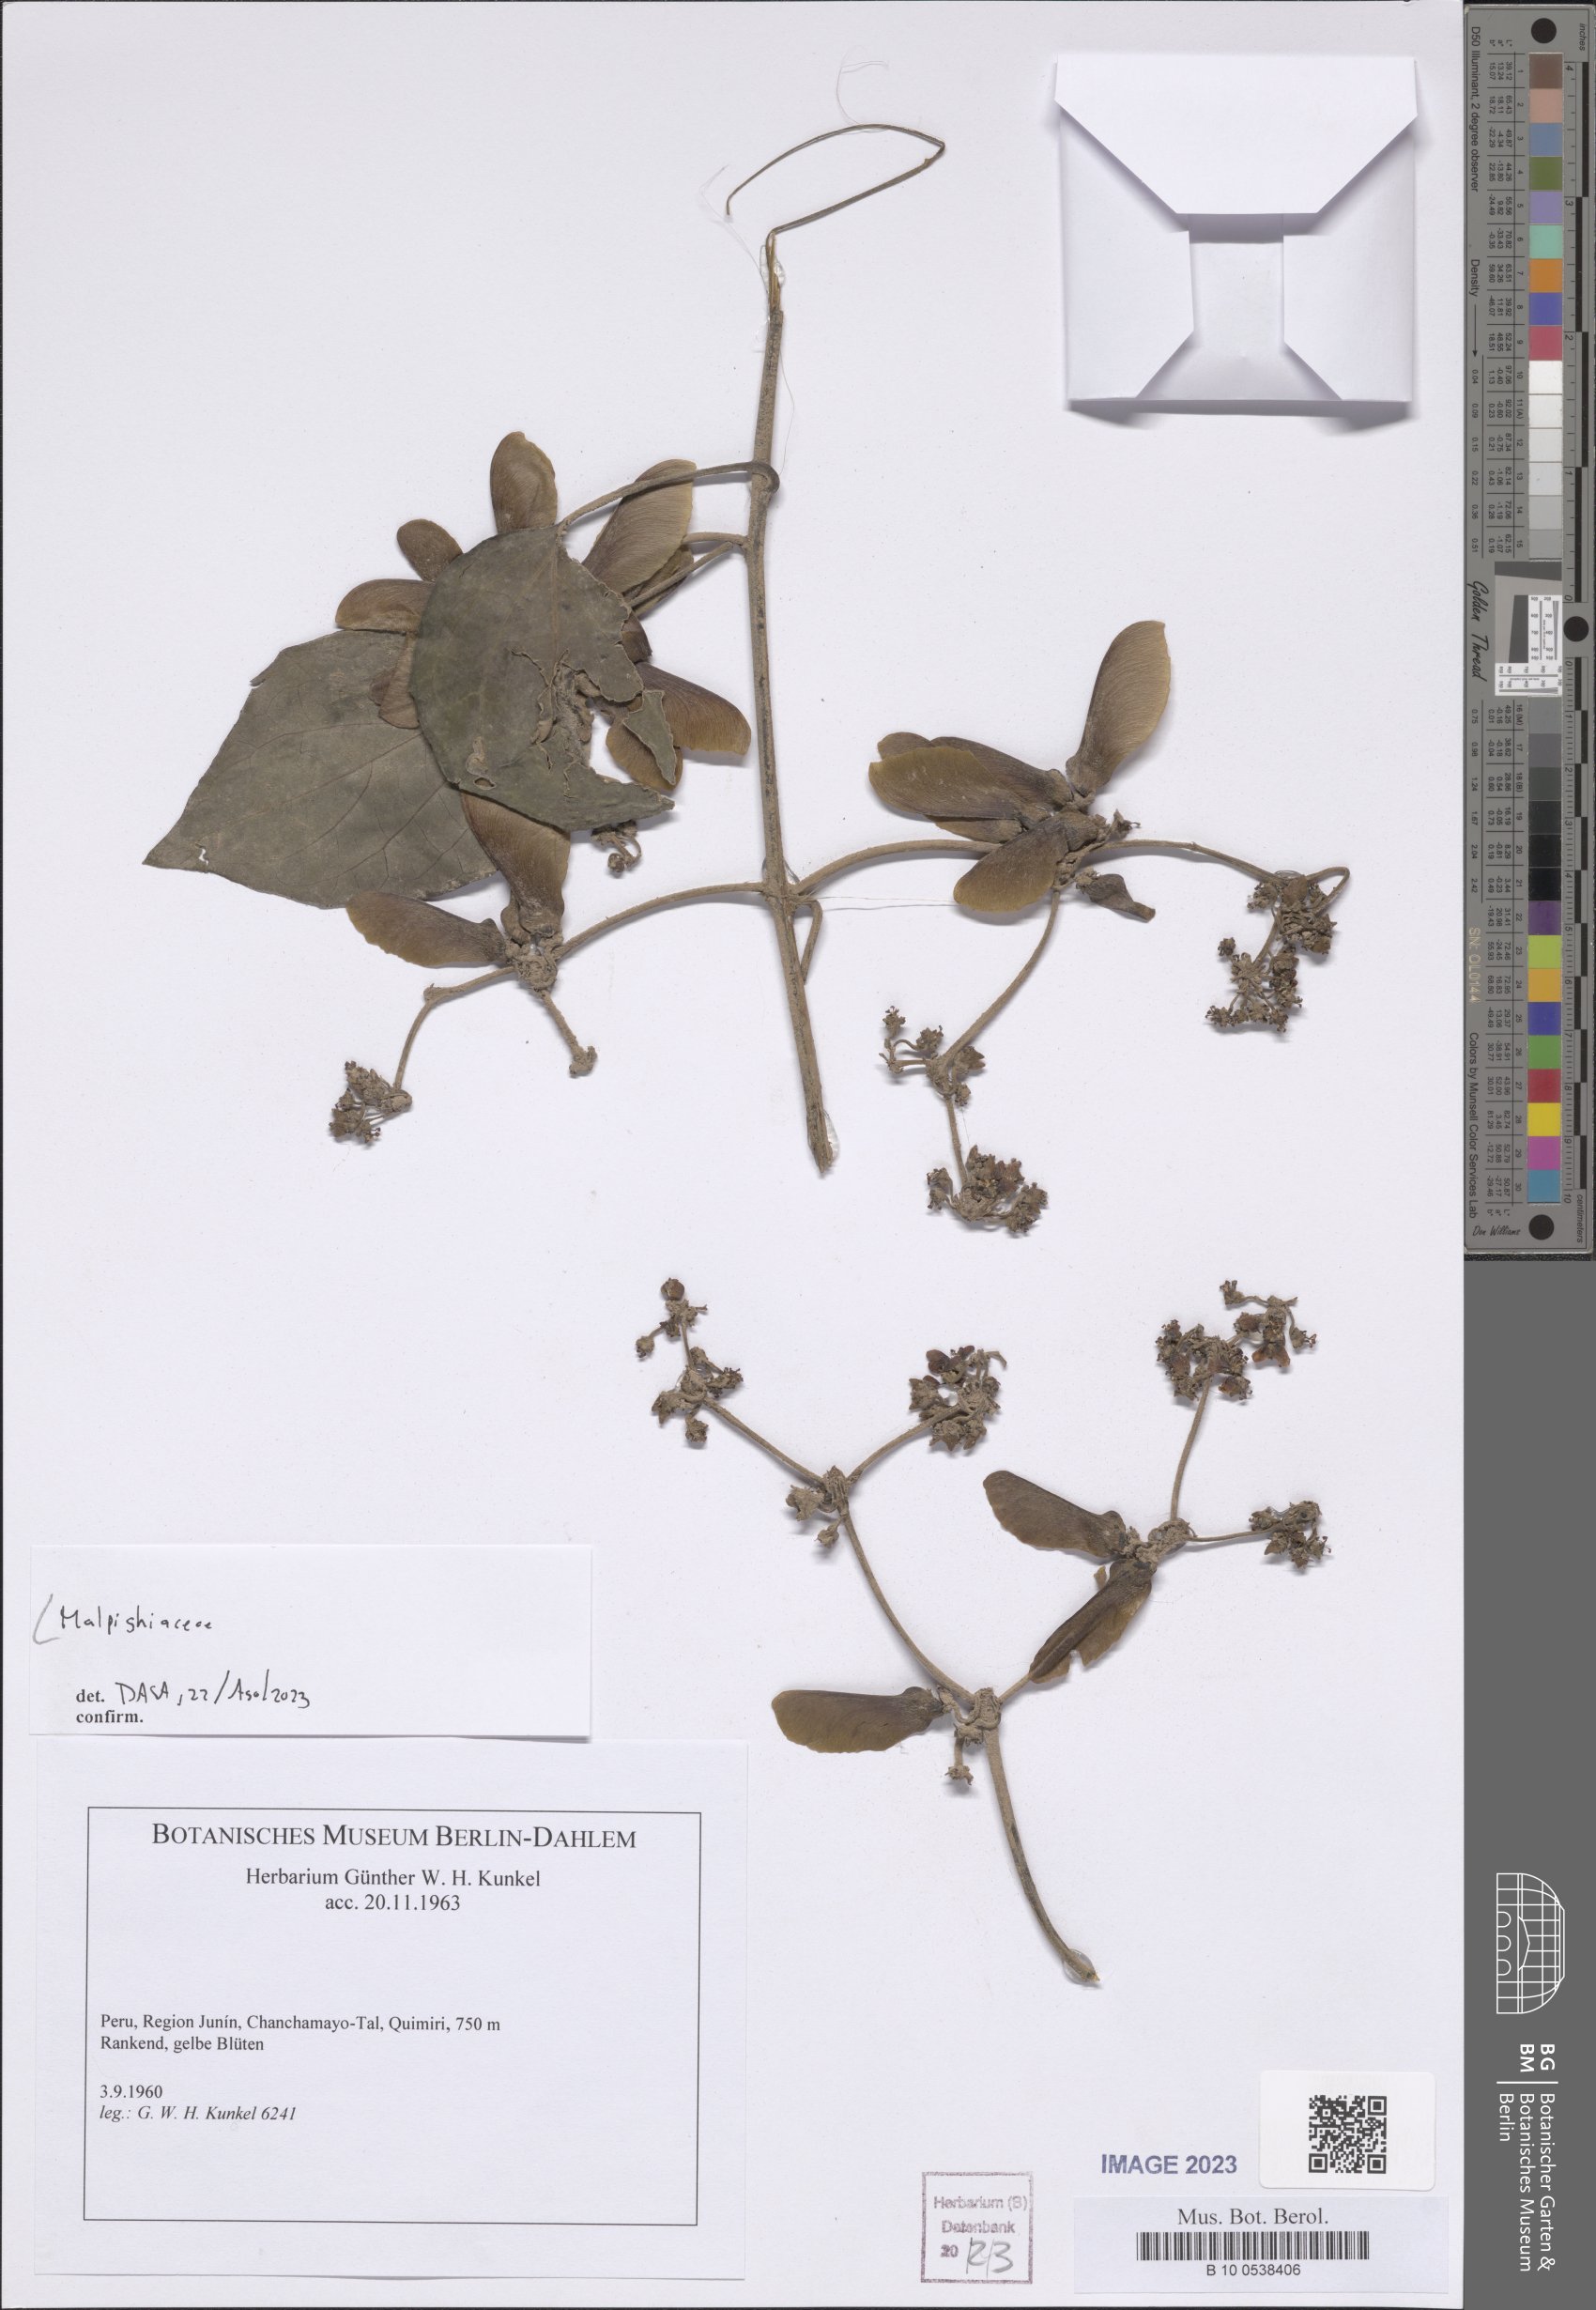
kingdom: Plantae
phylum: Tracheophyta
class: Magnoliopsida
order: Malpighiales
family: Malpighiaceae
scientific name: Malpighiaceae
